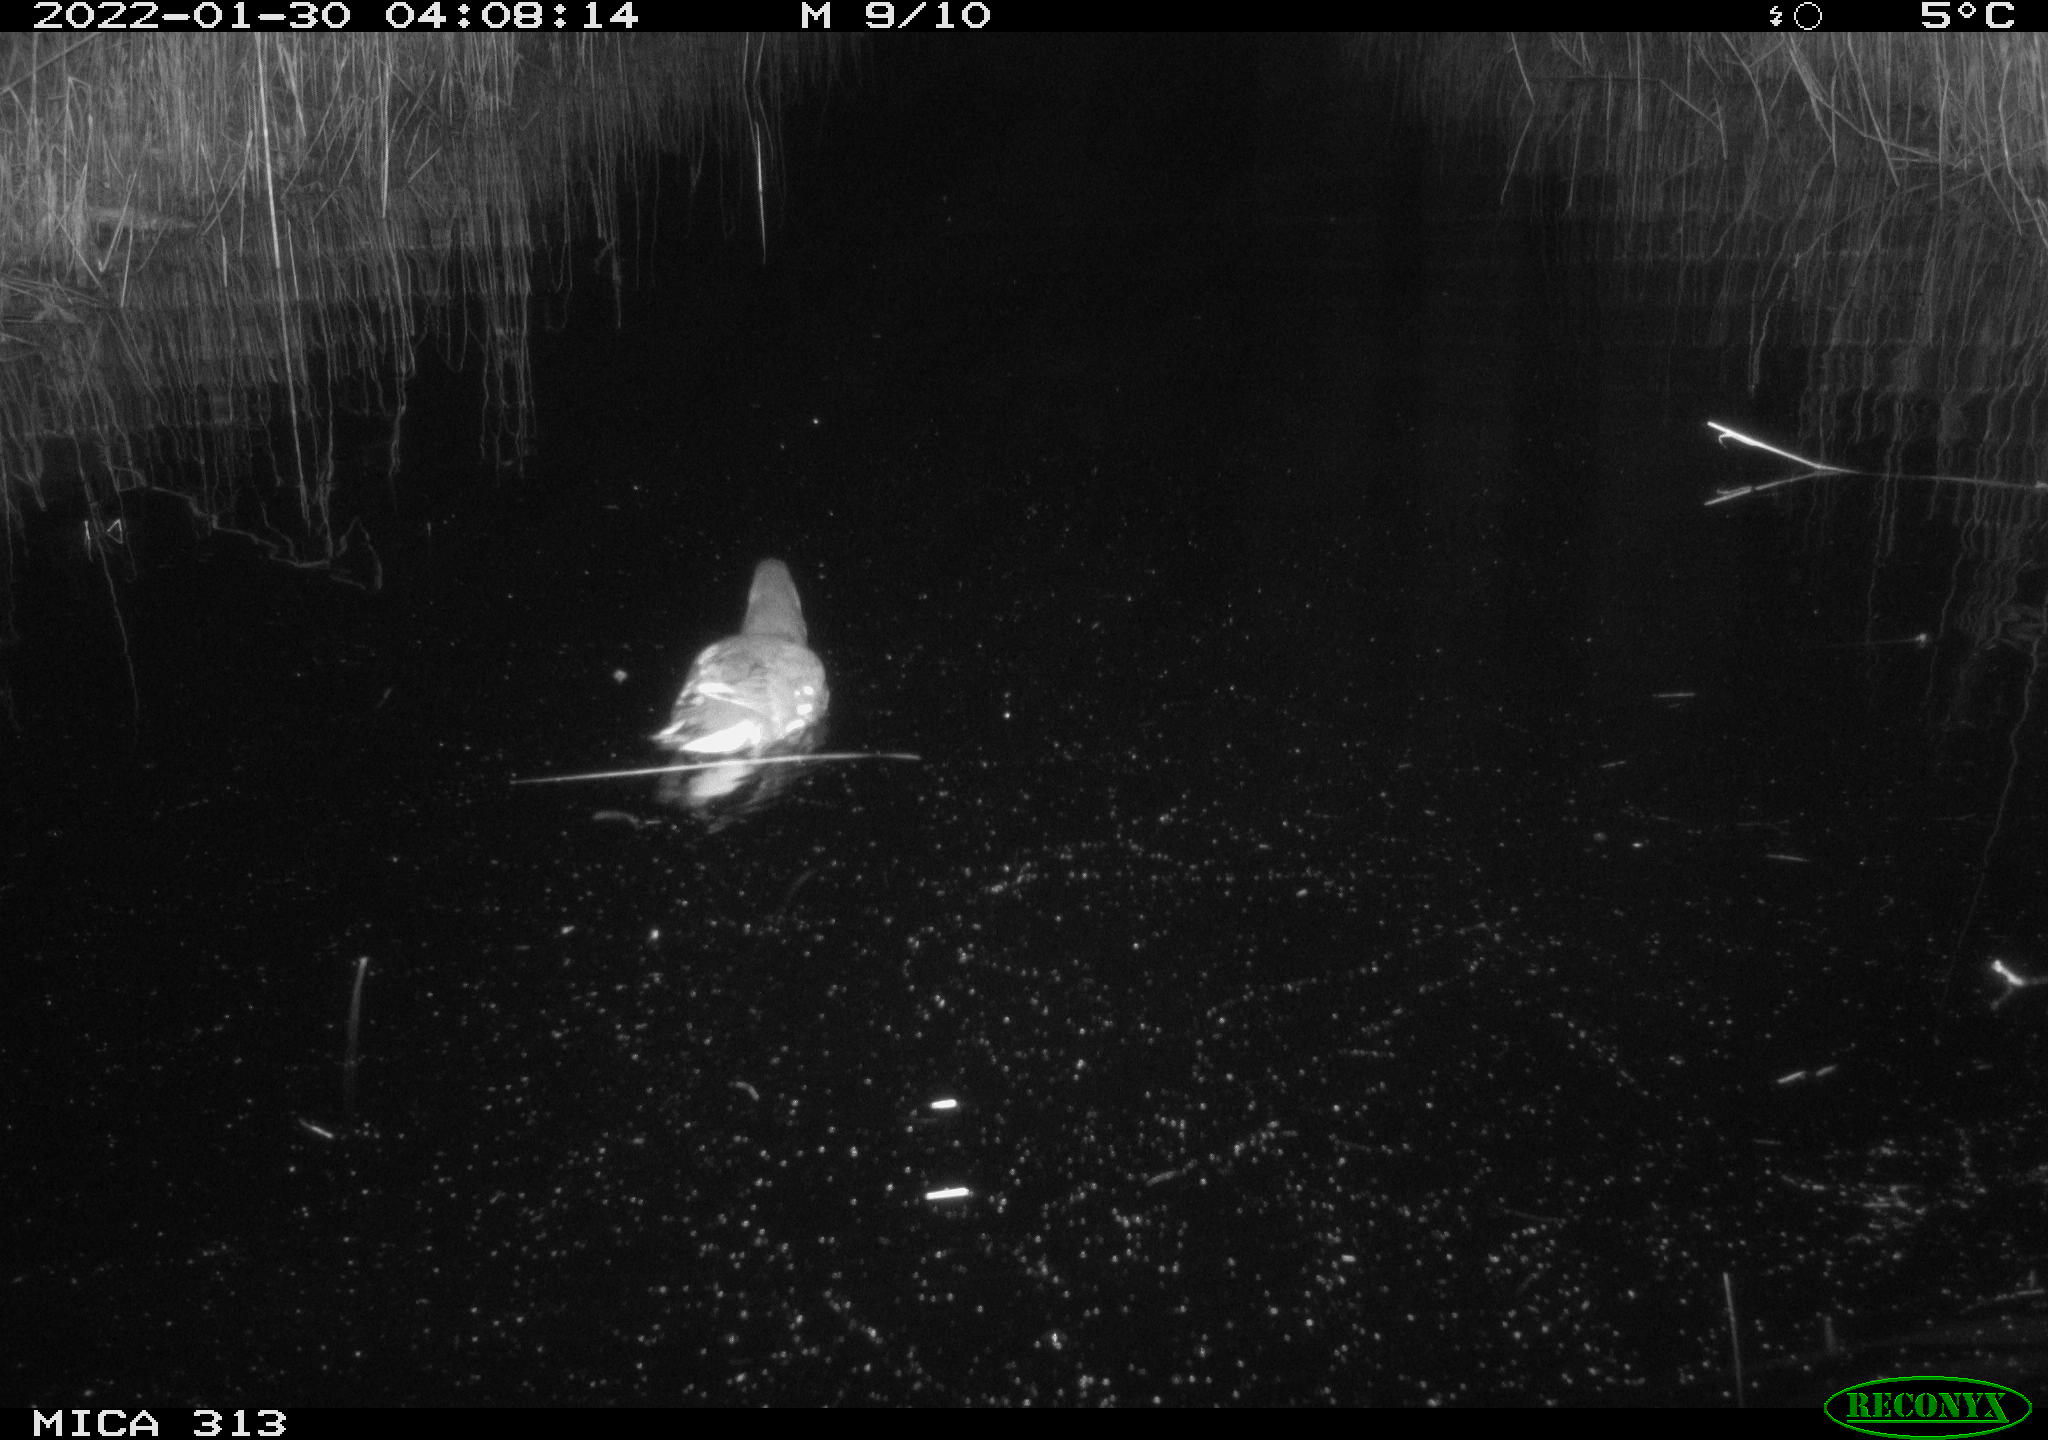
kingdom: Animalia
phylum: Chordata
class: Aves
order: Anseriformes
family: Anatidae
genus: Anas
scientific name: Anas
